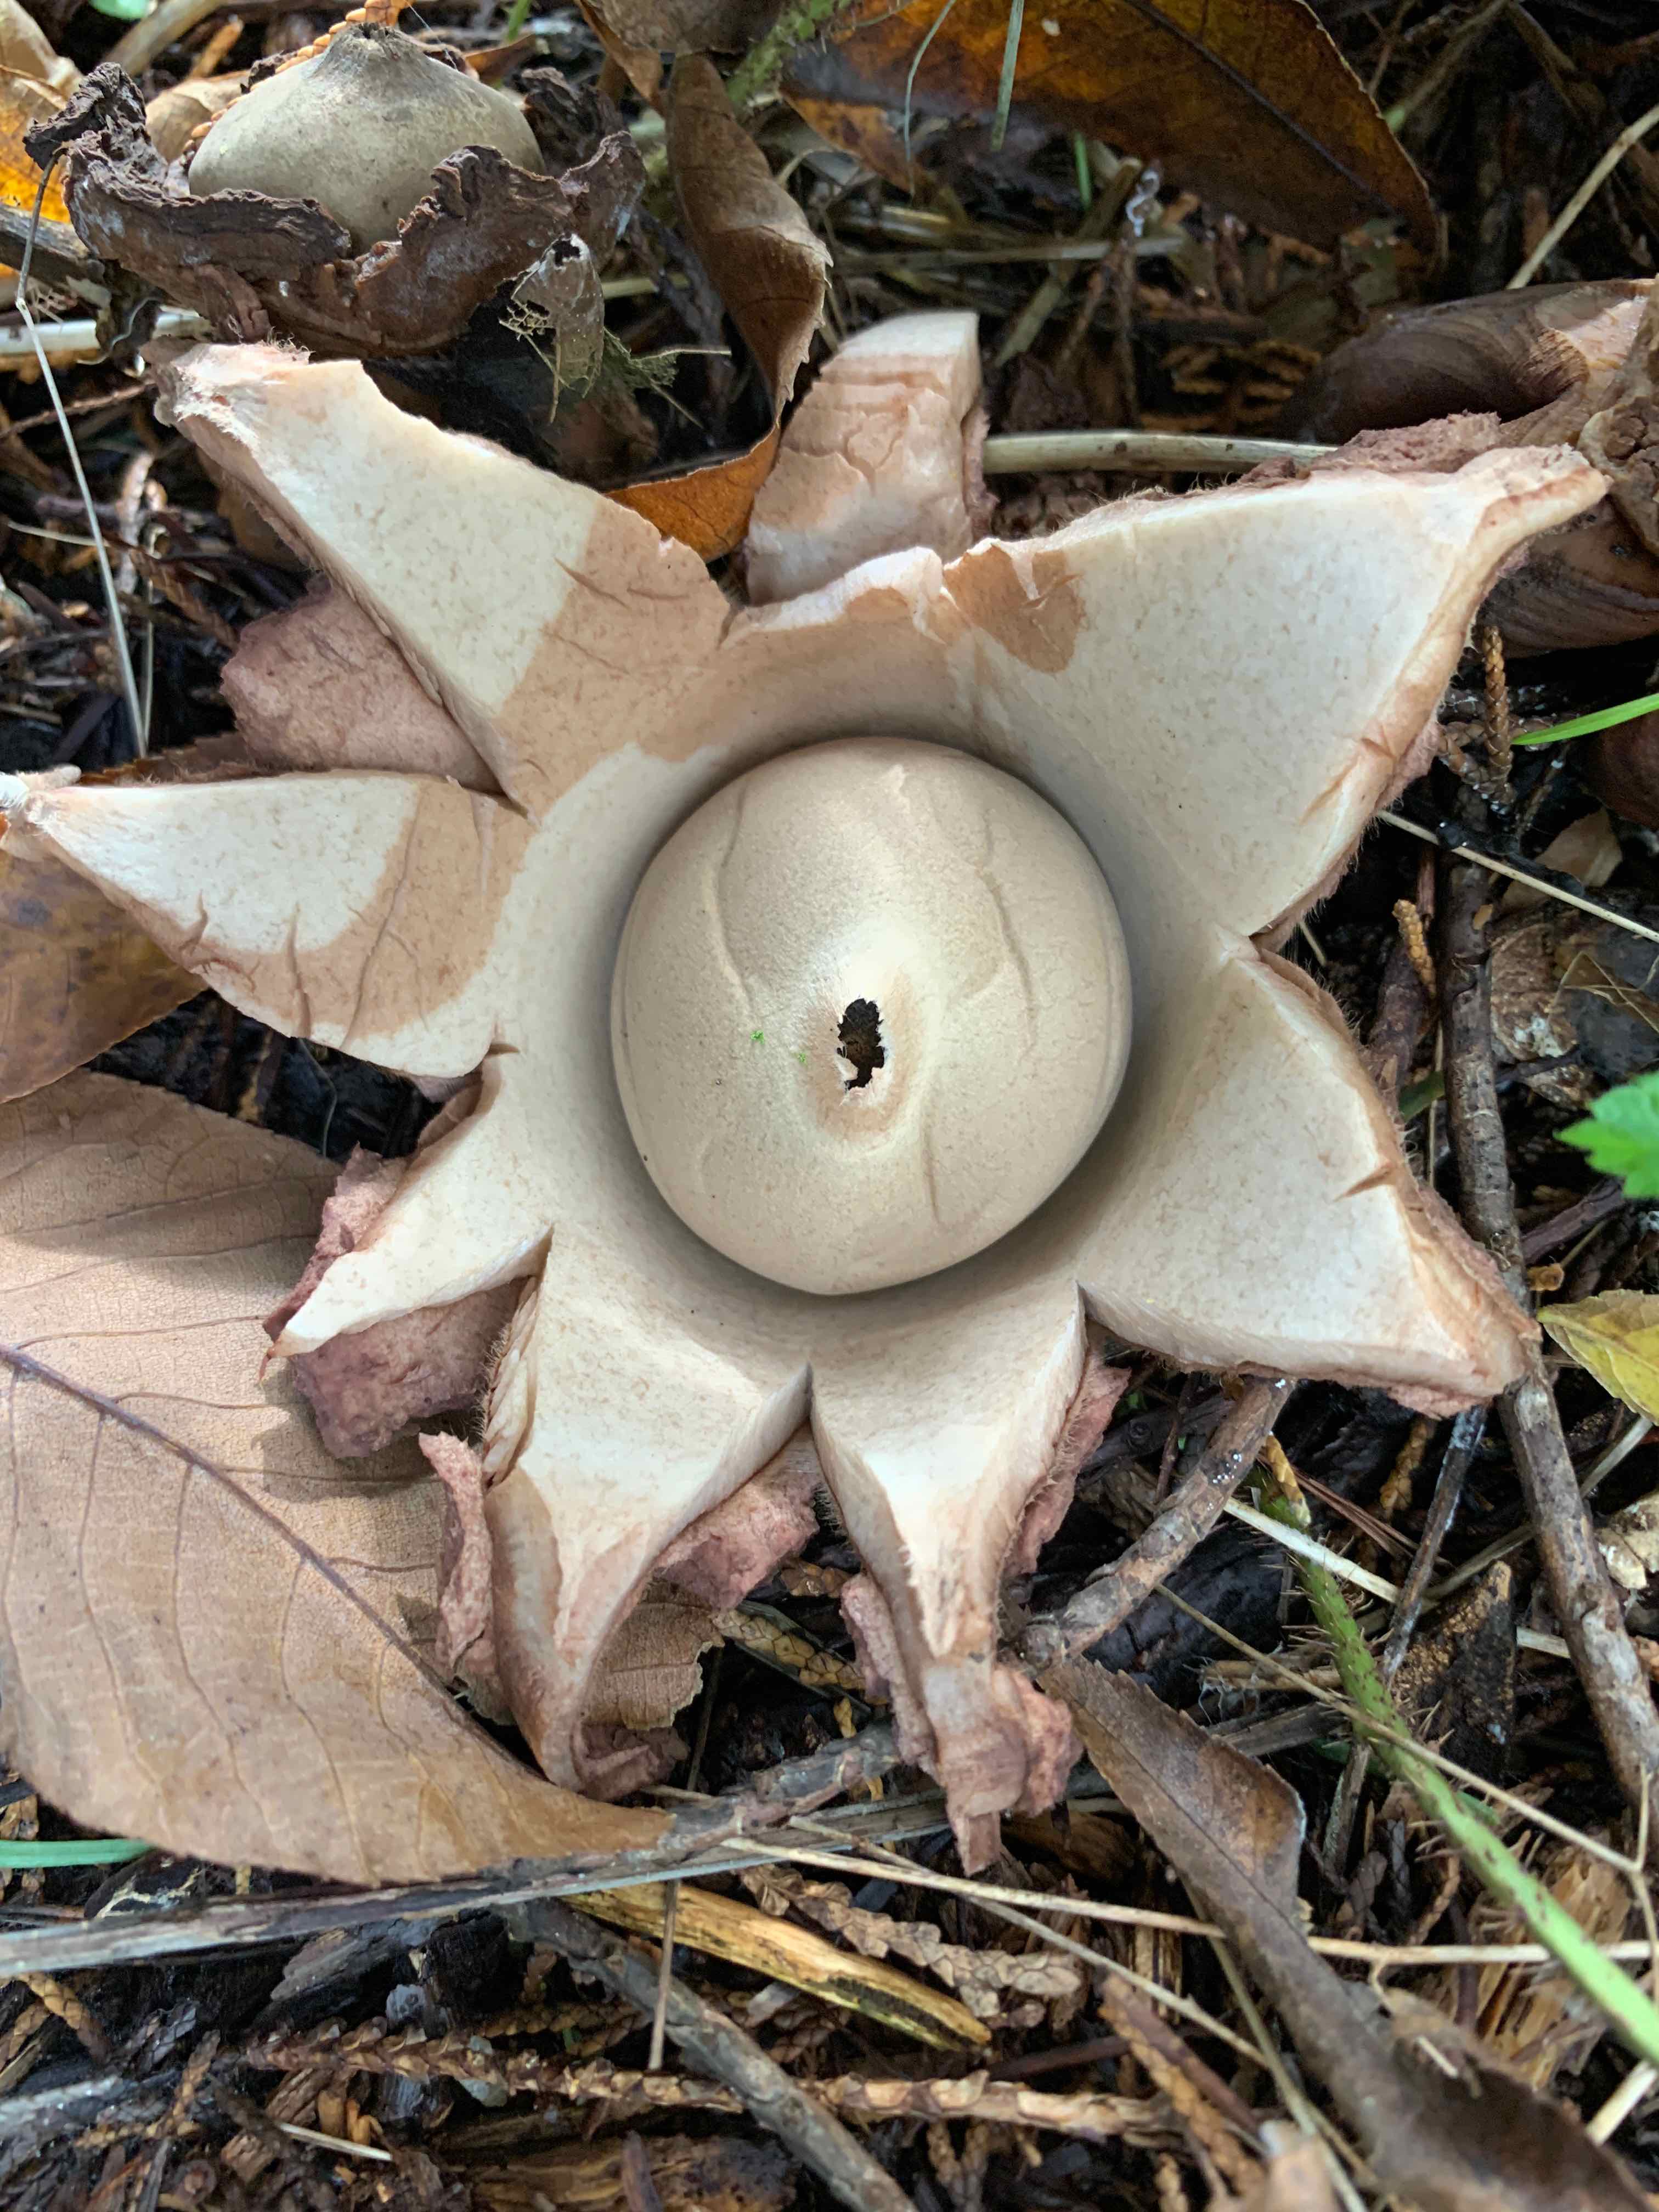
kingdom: Fungi
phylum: Basidiomycota
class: Agaricomycetes
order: Geastrales
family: Geastraceae
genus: Geastrum
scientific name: Geastrum michelianum
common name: kødet stjernebold
